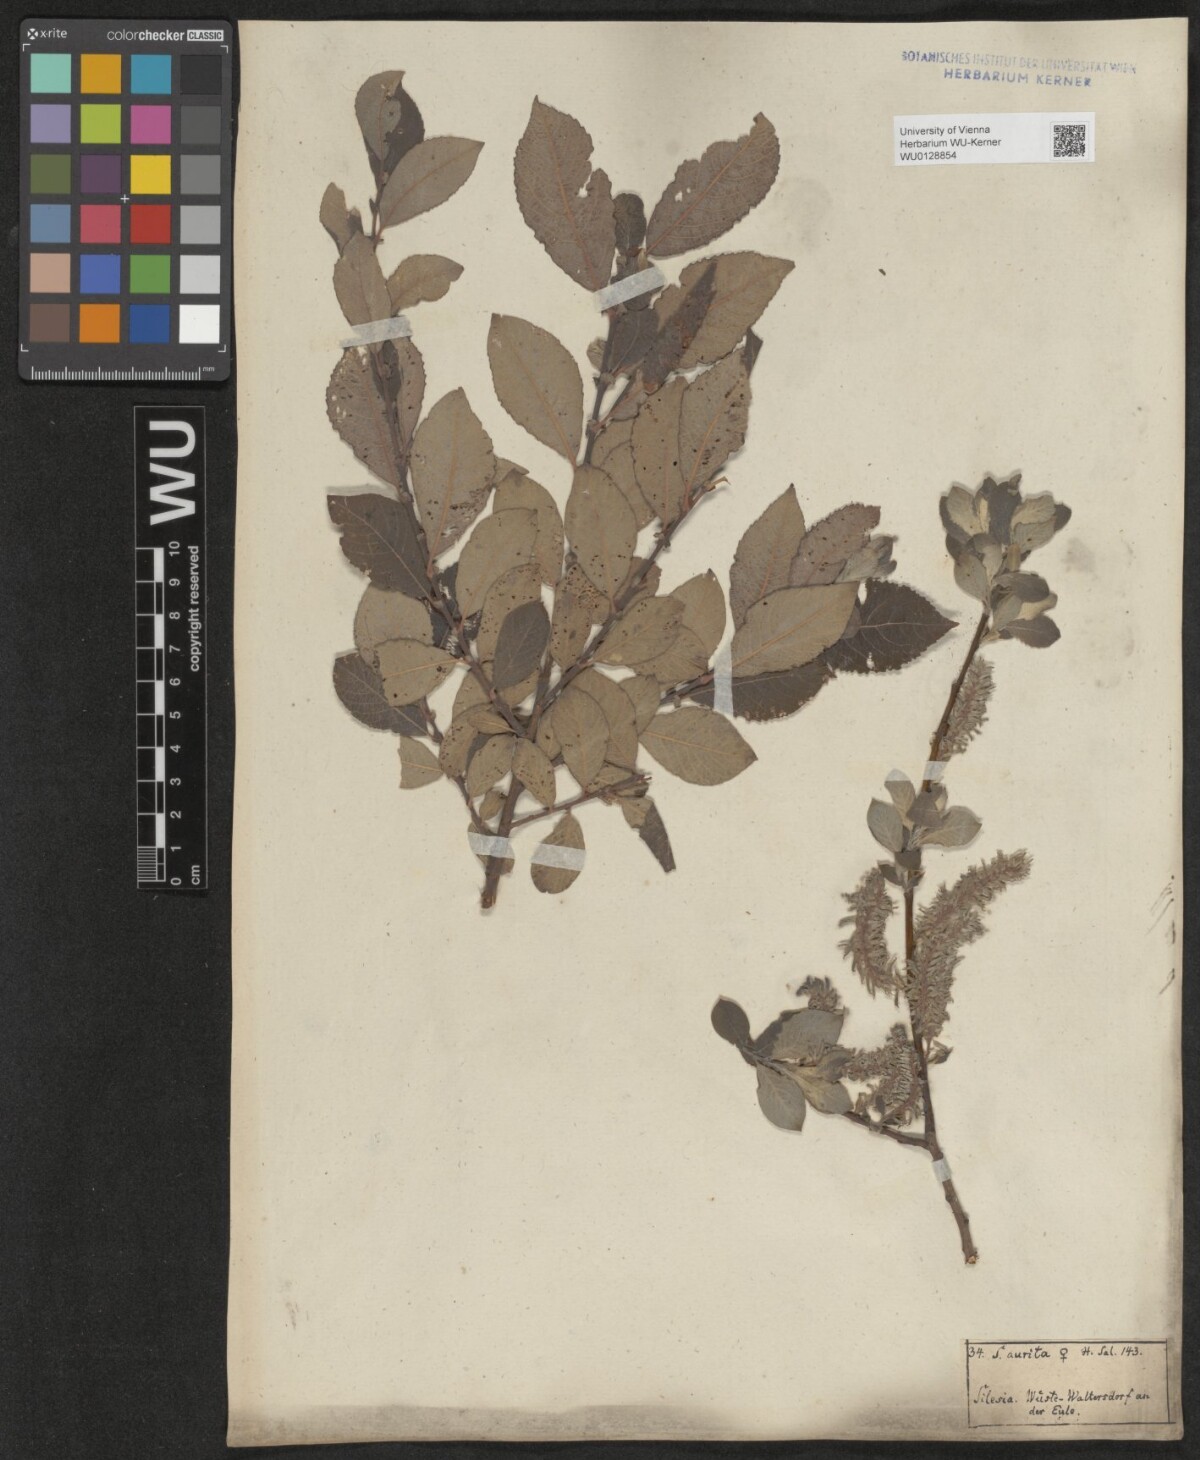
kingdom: Plantae
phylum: Tracheophyta
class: Magnoliopsida
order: Malpighiales
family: Salicaceae
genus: Salix
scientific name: Salix aurita
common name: Eared willow
